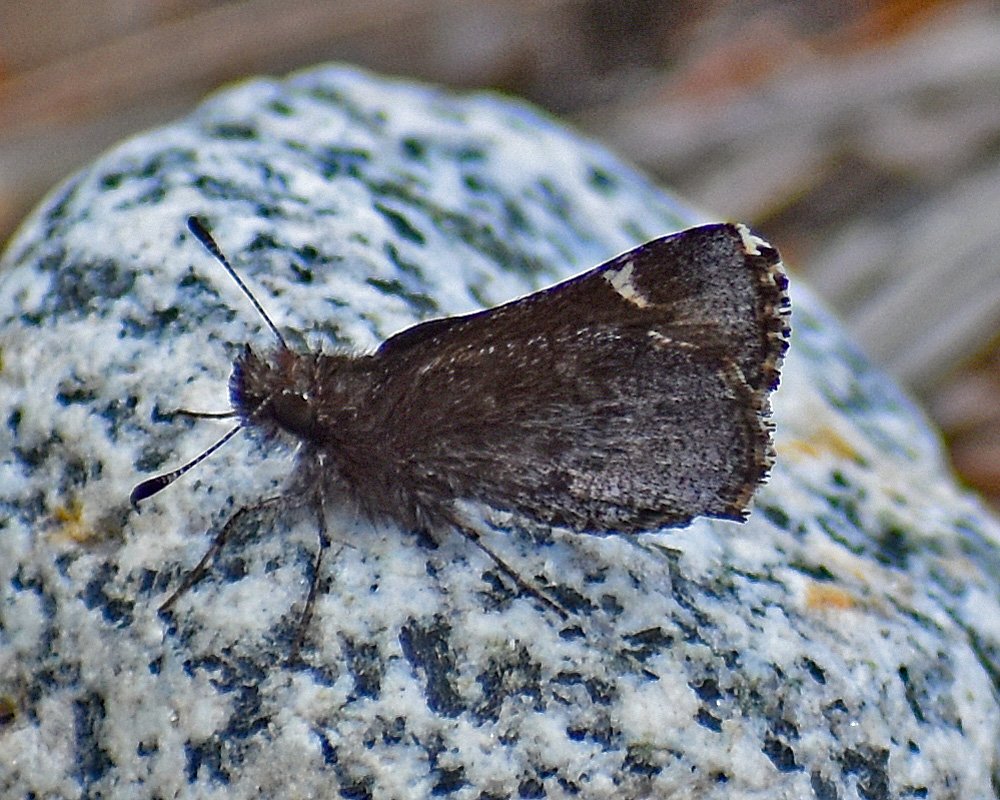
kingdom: Animalia
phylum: Arthropoda
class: Insecta
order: Lepidoptera
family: Hesperiidae
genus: Mastor
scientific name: Mastor vialis
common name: Common Roadside-Skipper
